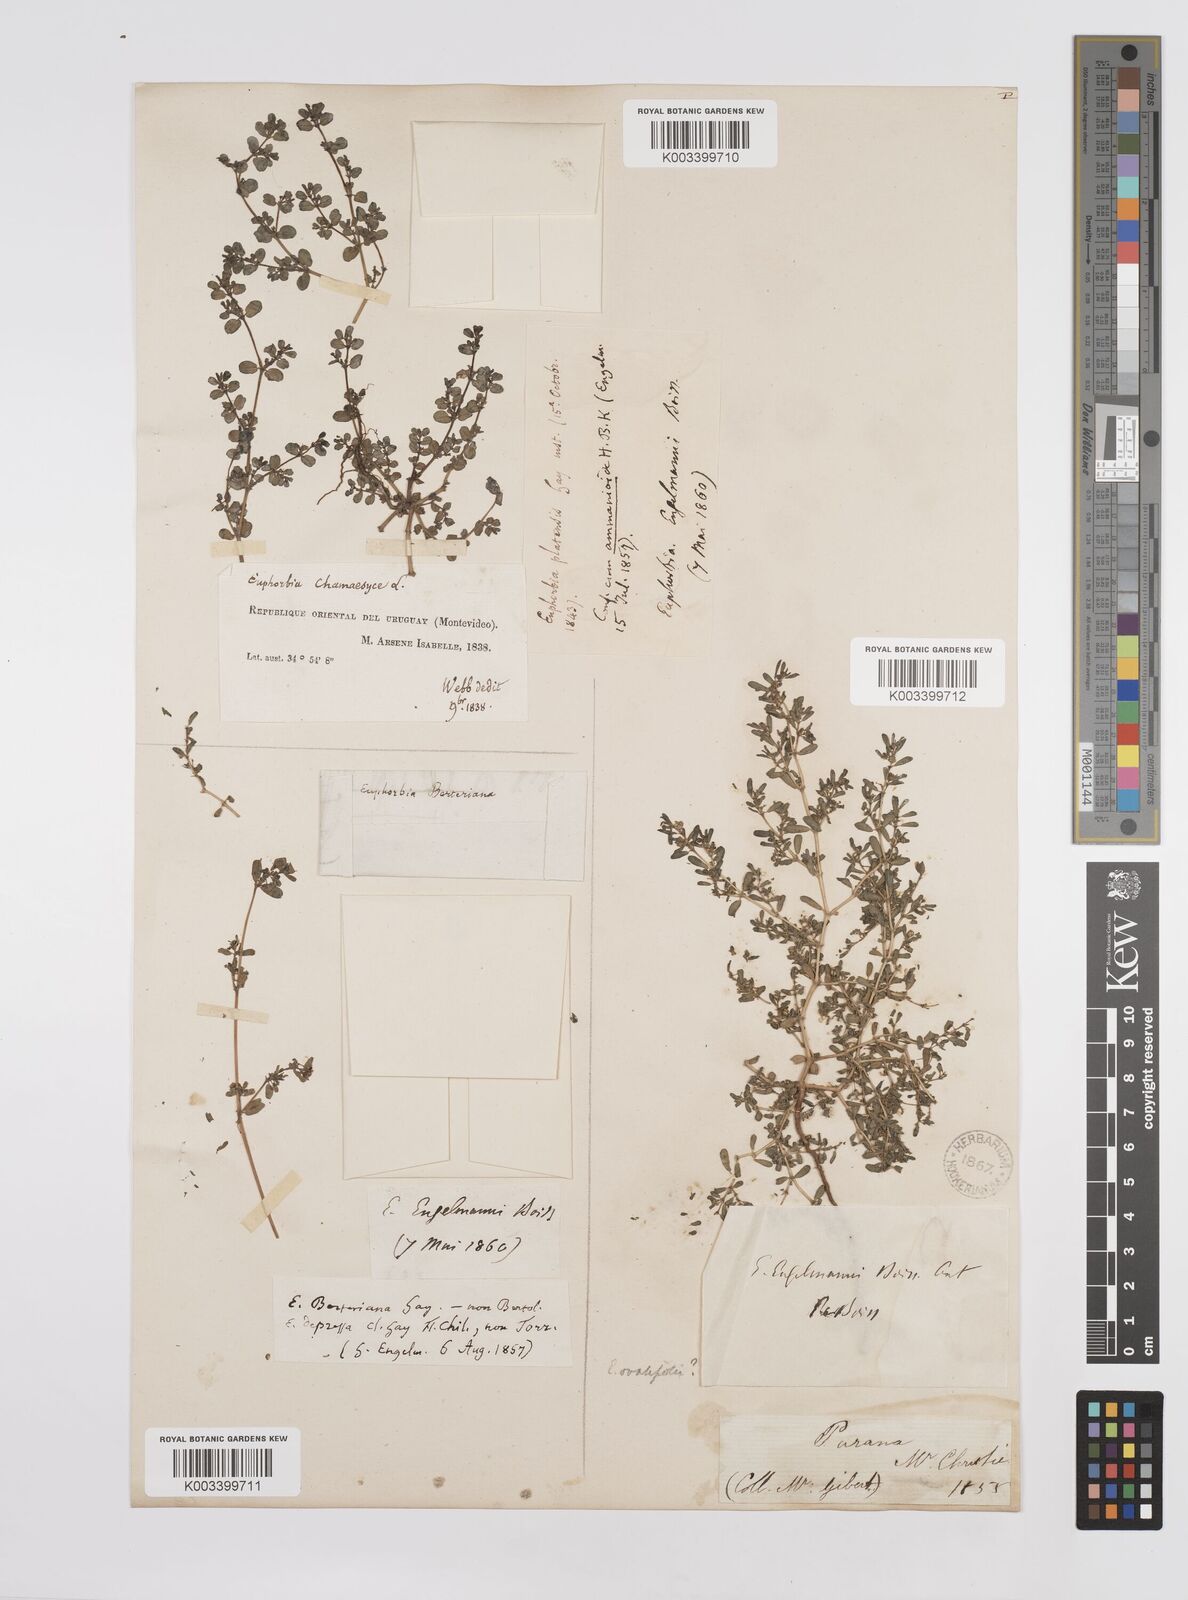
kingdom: Plantae
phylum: Tracheophyta
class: Magnoliopsida
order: Malpighiales
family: Euphorbiaceae
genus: Euphorbia
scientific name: Euphorbia
